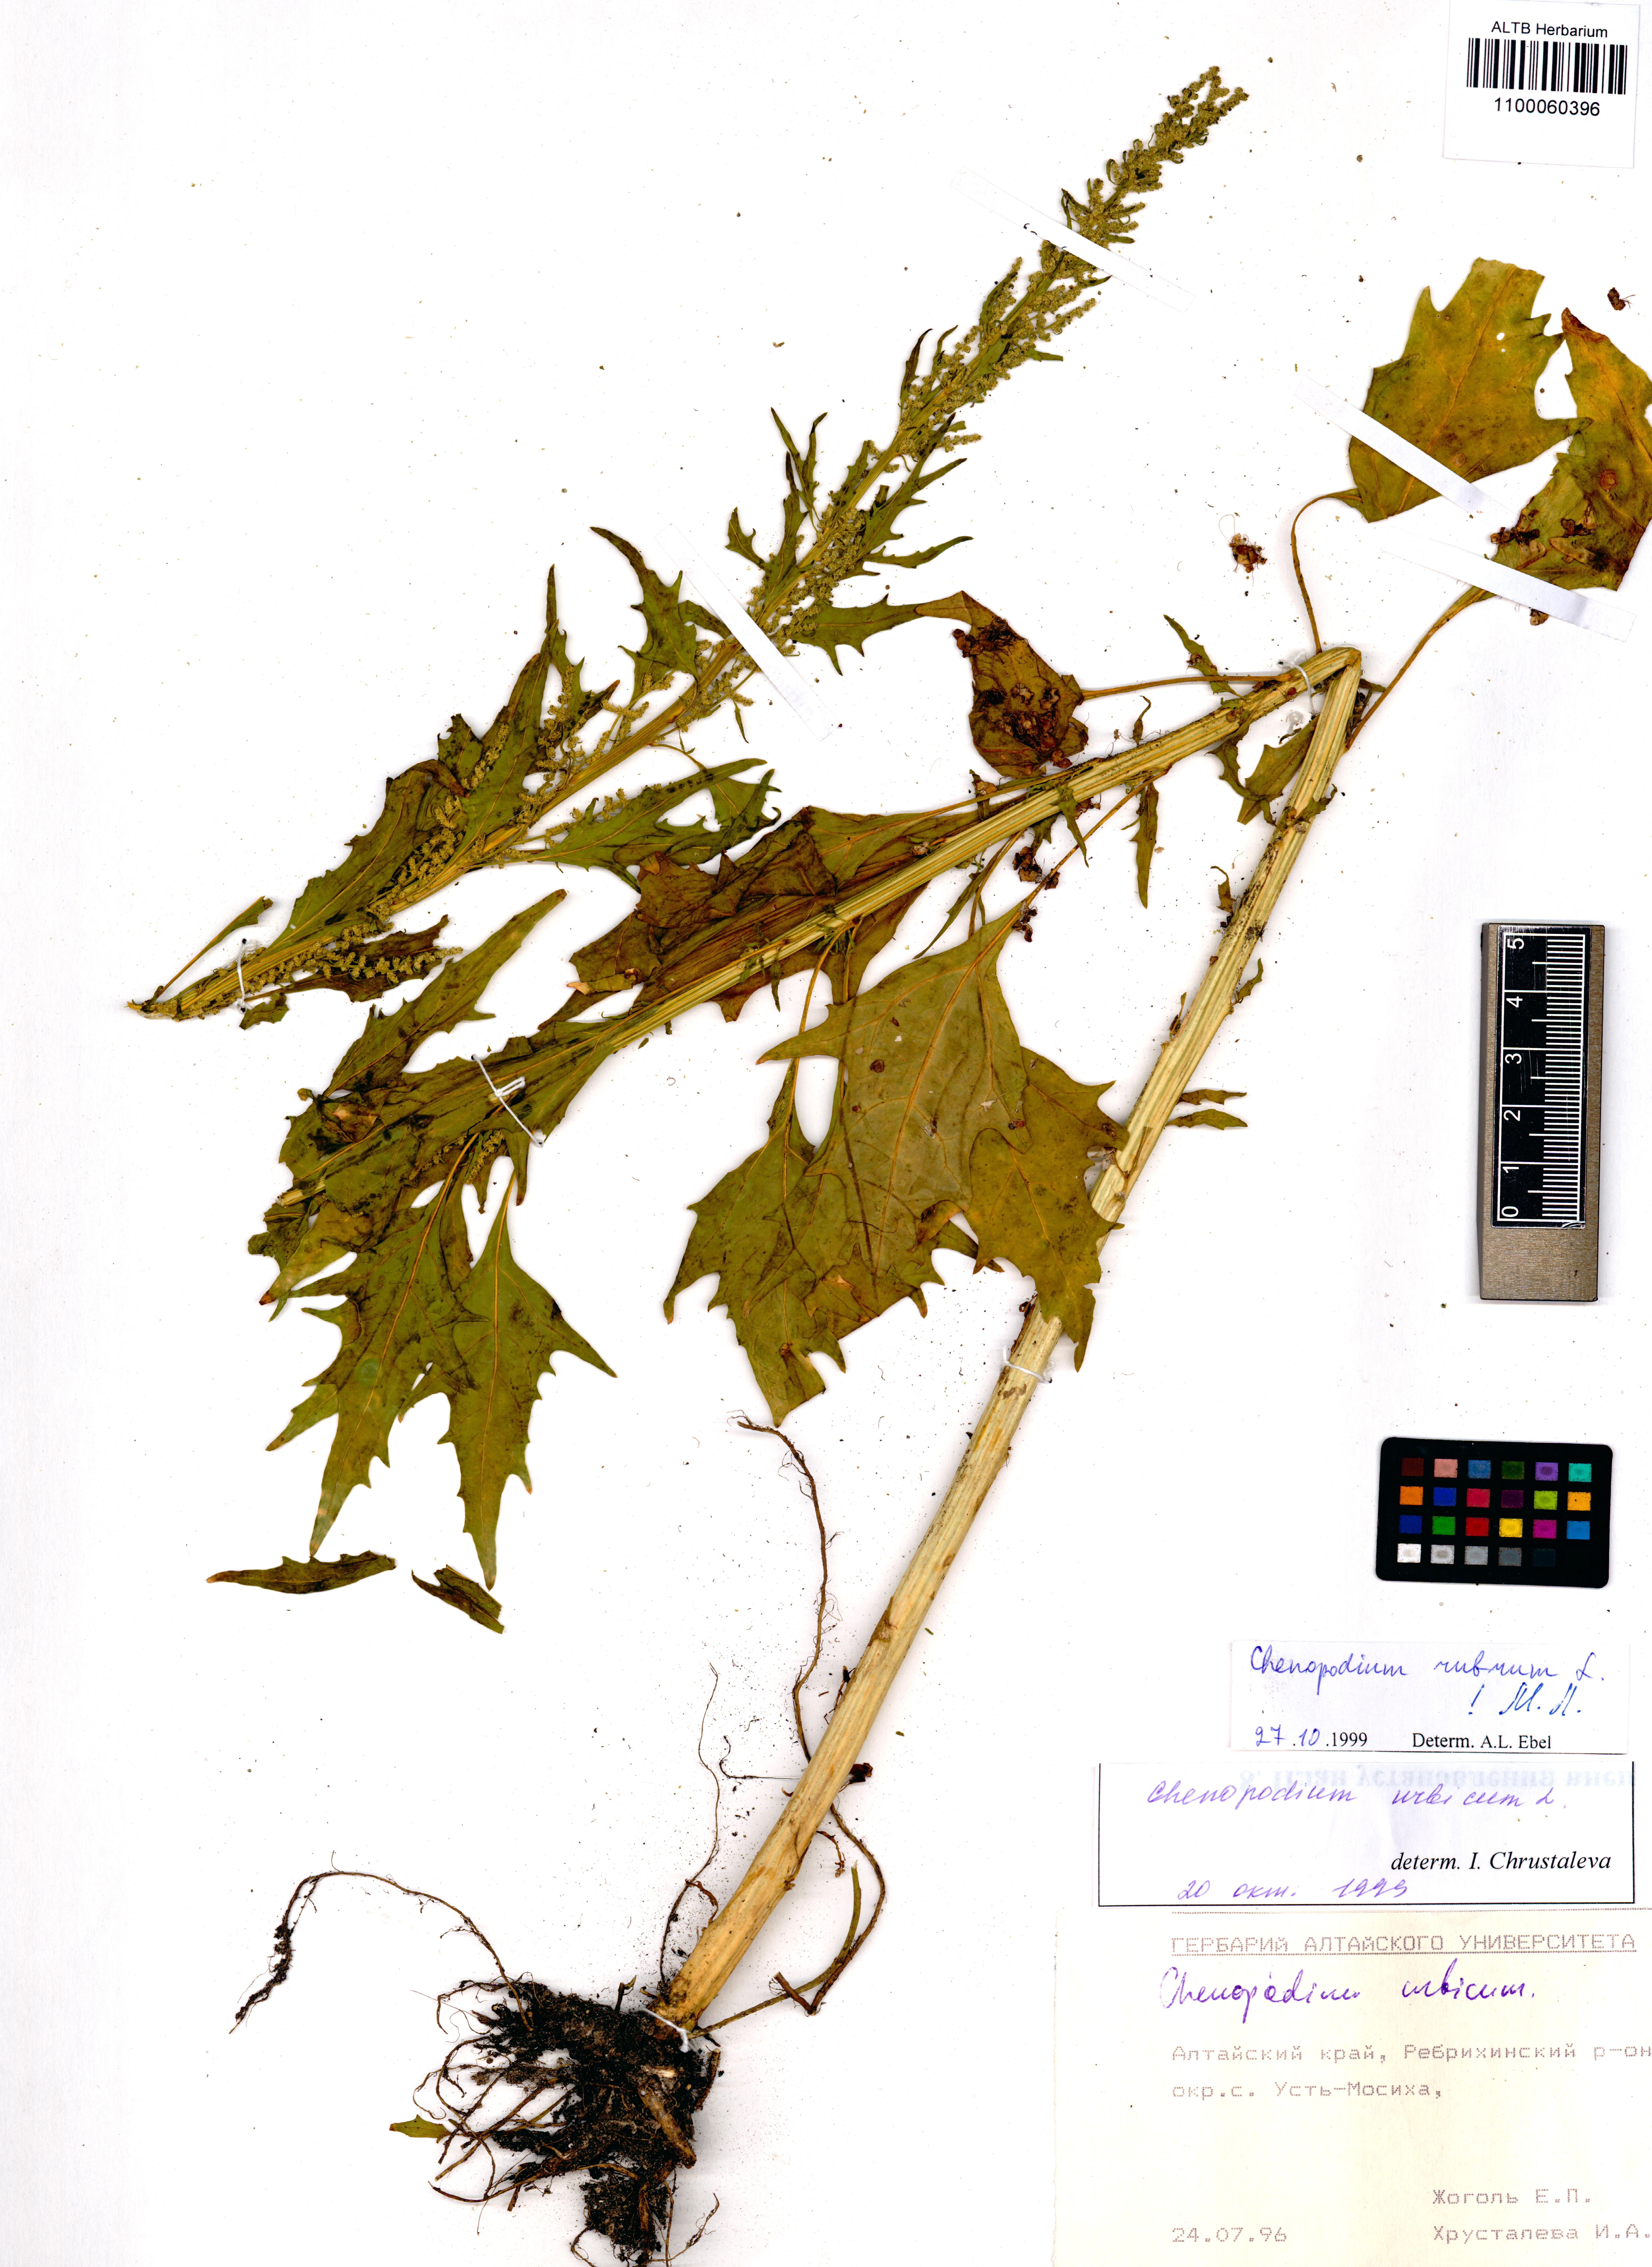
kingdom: Plantae
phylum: Tracheophyta
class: Magnoliopsida
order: Caryophyllales
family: Amaranthaceae
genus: Oxybasis
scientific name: Oxybasis rubra
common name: Red goosefoot
